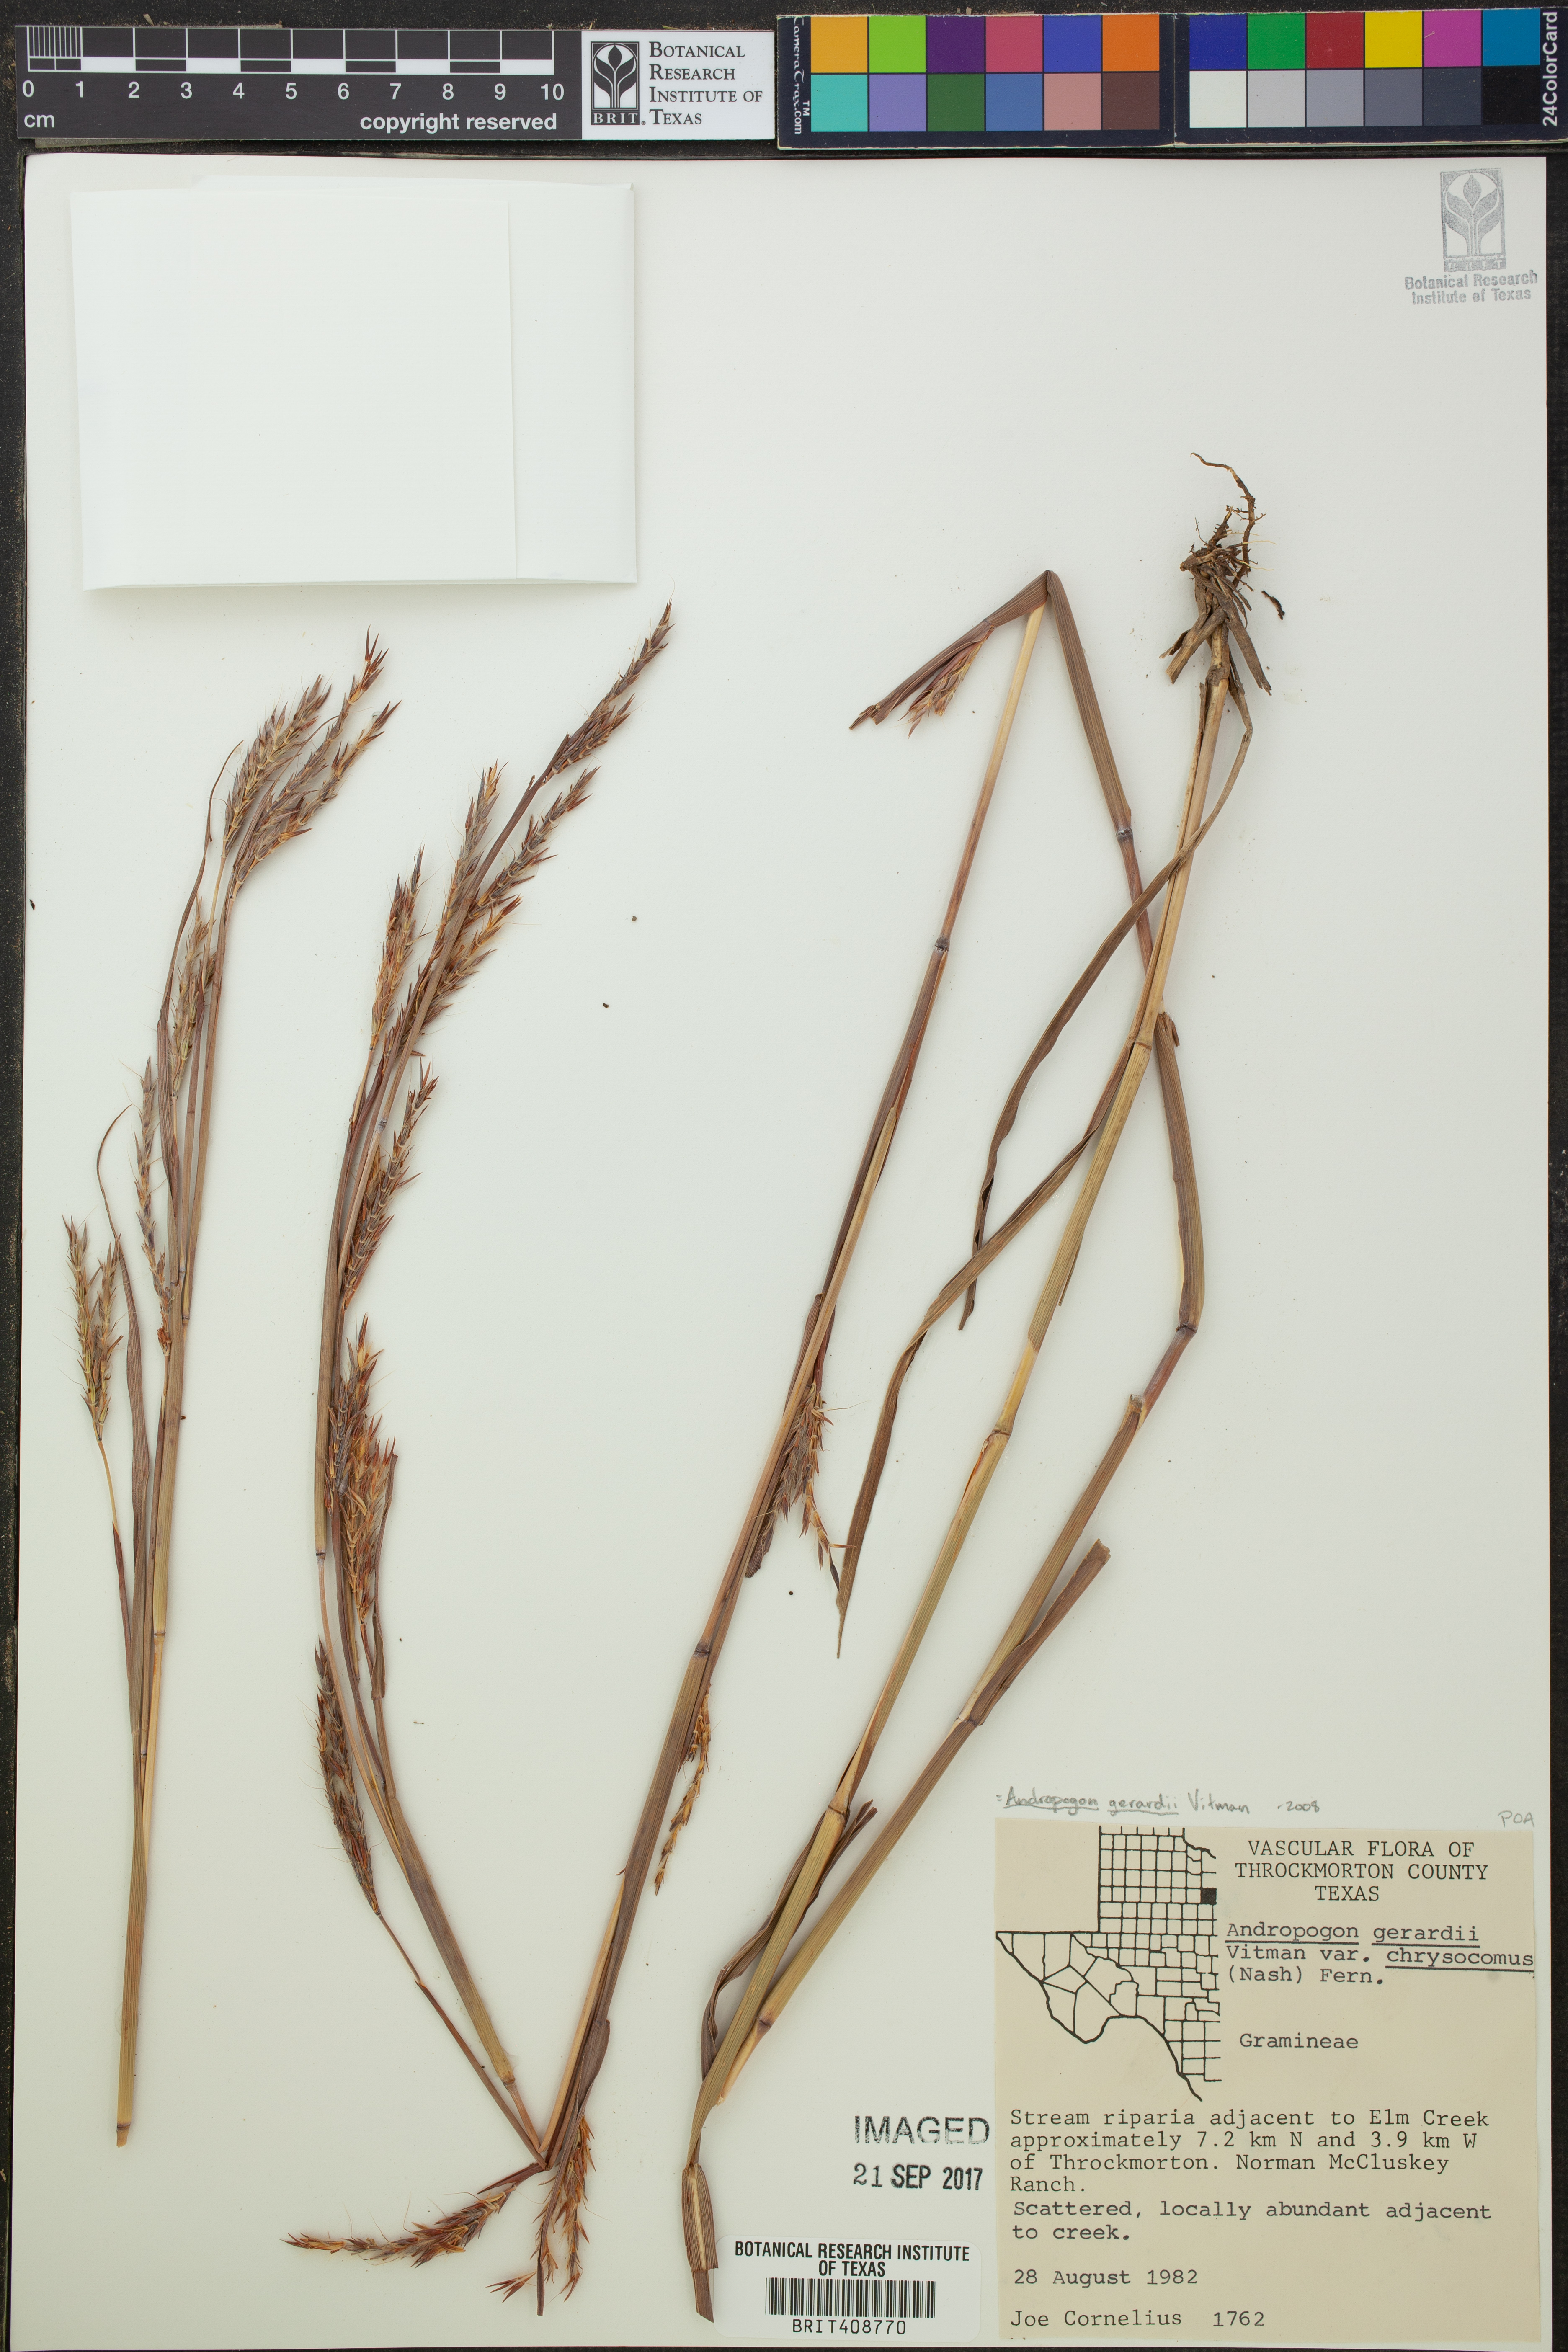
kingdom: Plantae
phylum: Tracheophyta
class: Liliopsida
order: Poales
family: Poaceae
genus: Andropogon
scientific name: Andropogon gerardi
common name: Big bluestem
